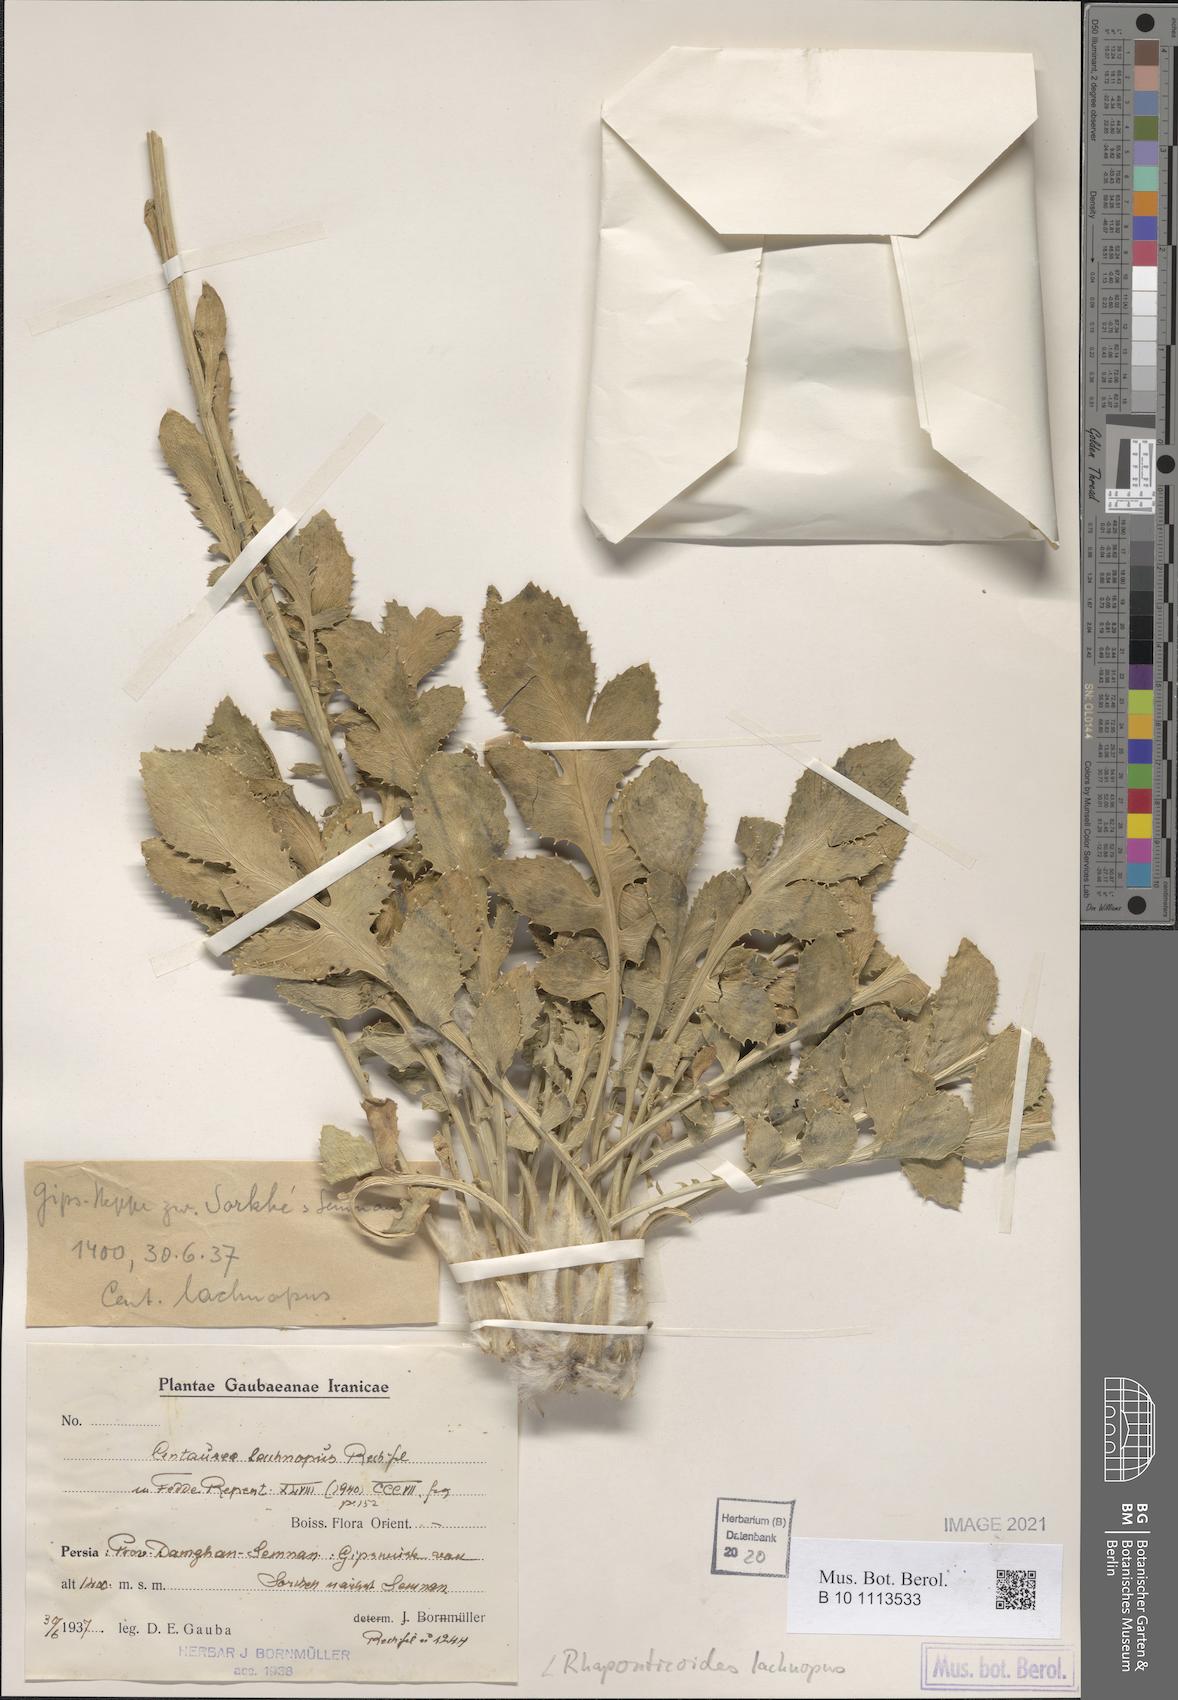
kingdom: Plantae
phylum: Tracheophyta
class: Magnoliopsida
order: Asterales
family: Asteraceae
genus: Rhaponticoides
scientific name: Rhaponticoides lachnopus
